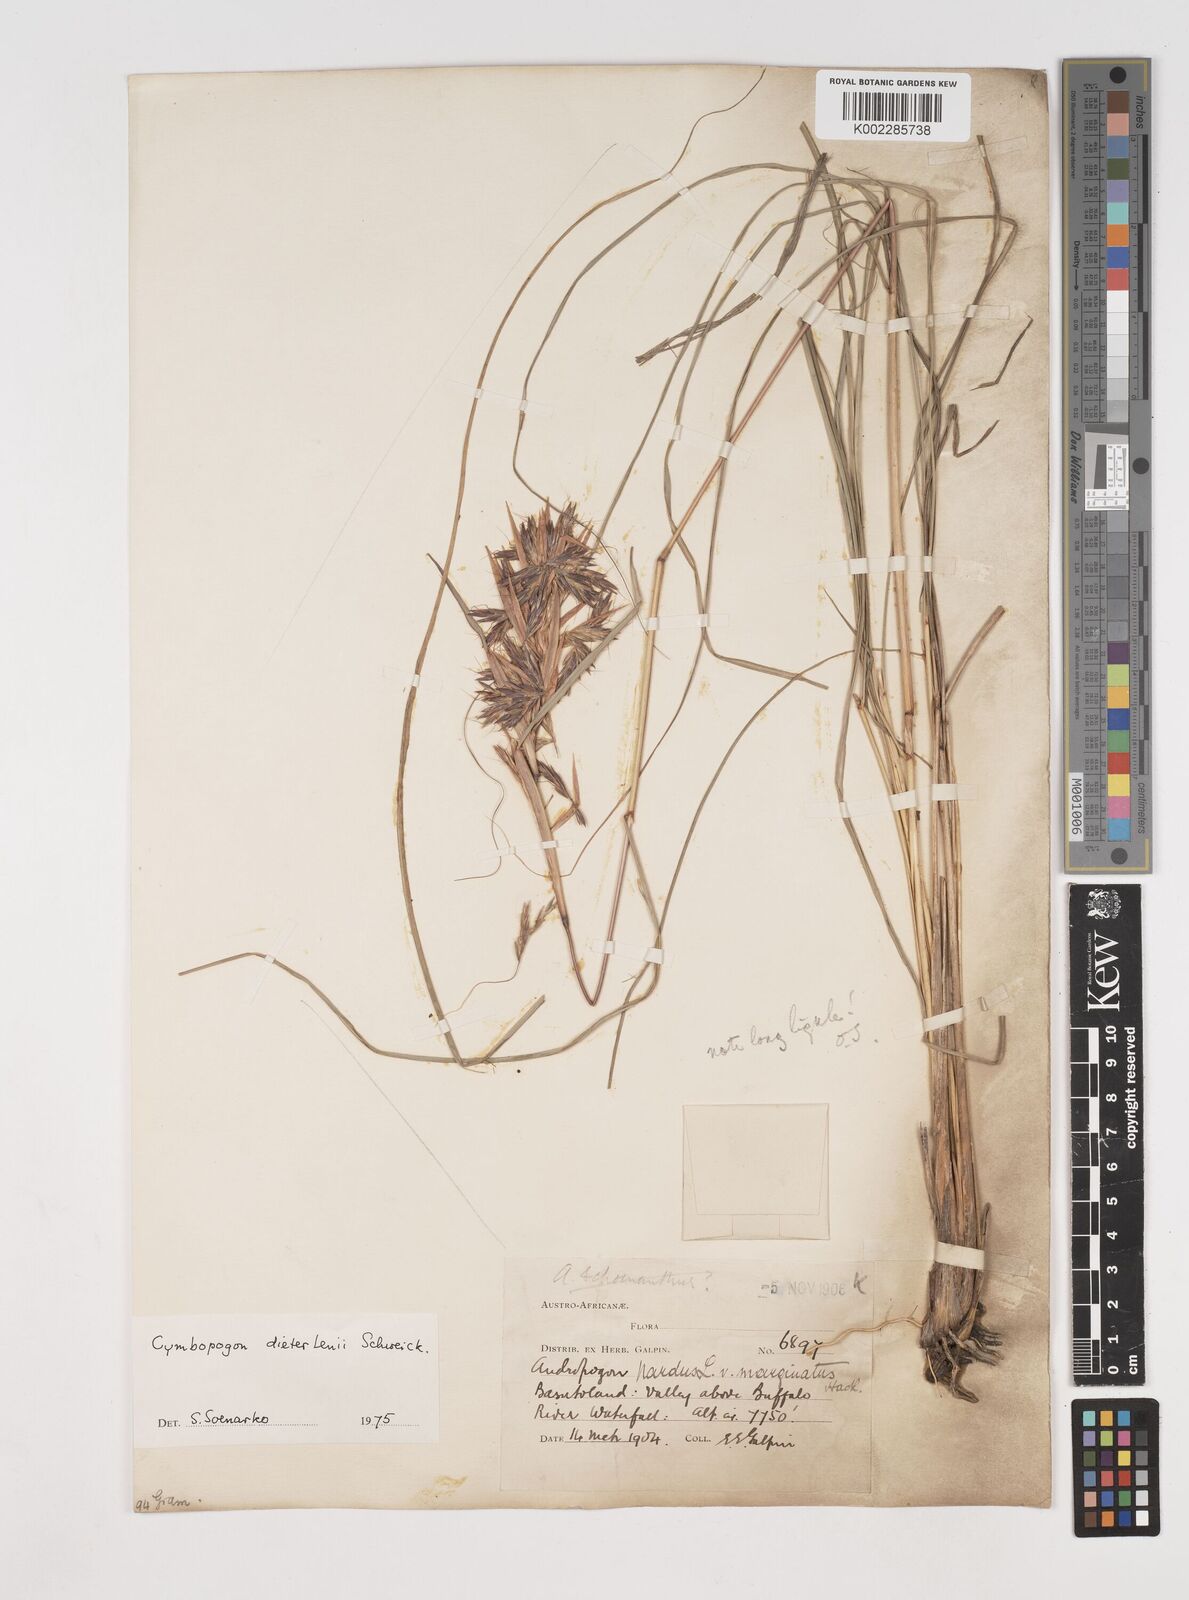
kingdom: Plantae
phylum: Tracheophyta
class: Liliopsida
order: Poales
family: Poaceae
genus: Cymbopogon
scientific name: Cymbopogon dieterlenii
